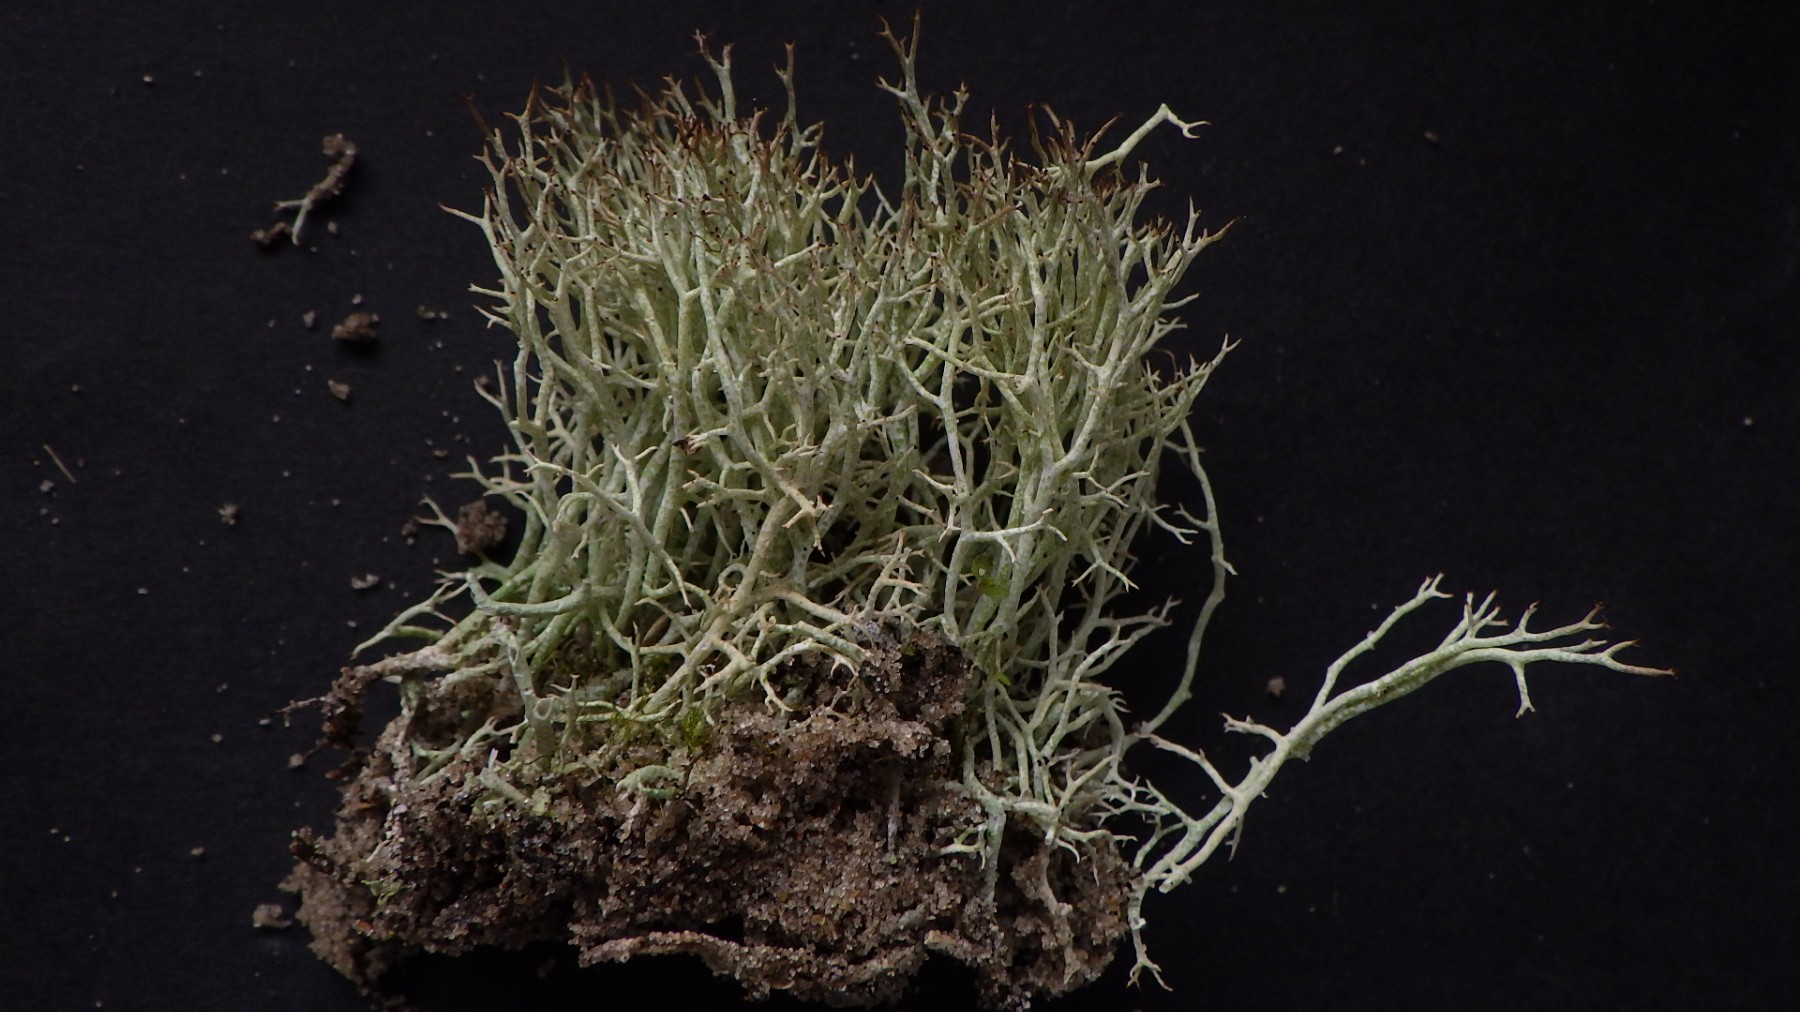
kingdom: Fungi
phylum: Ascomycota
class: Lecanoromycetes
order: Lecanorales
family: Cladoniaceae
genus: Cladonia
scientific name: Cladonia uncialis
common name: Thorn lichen
